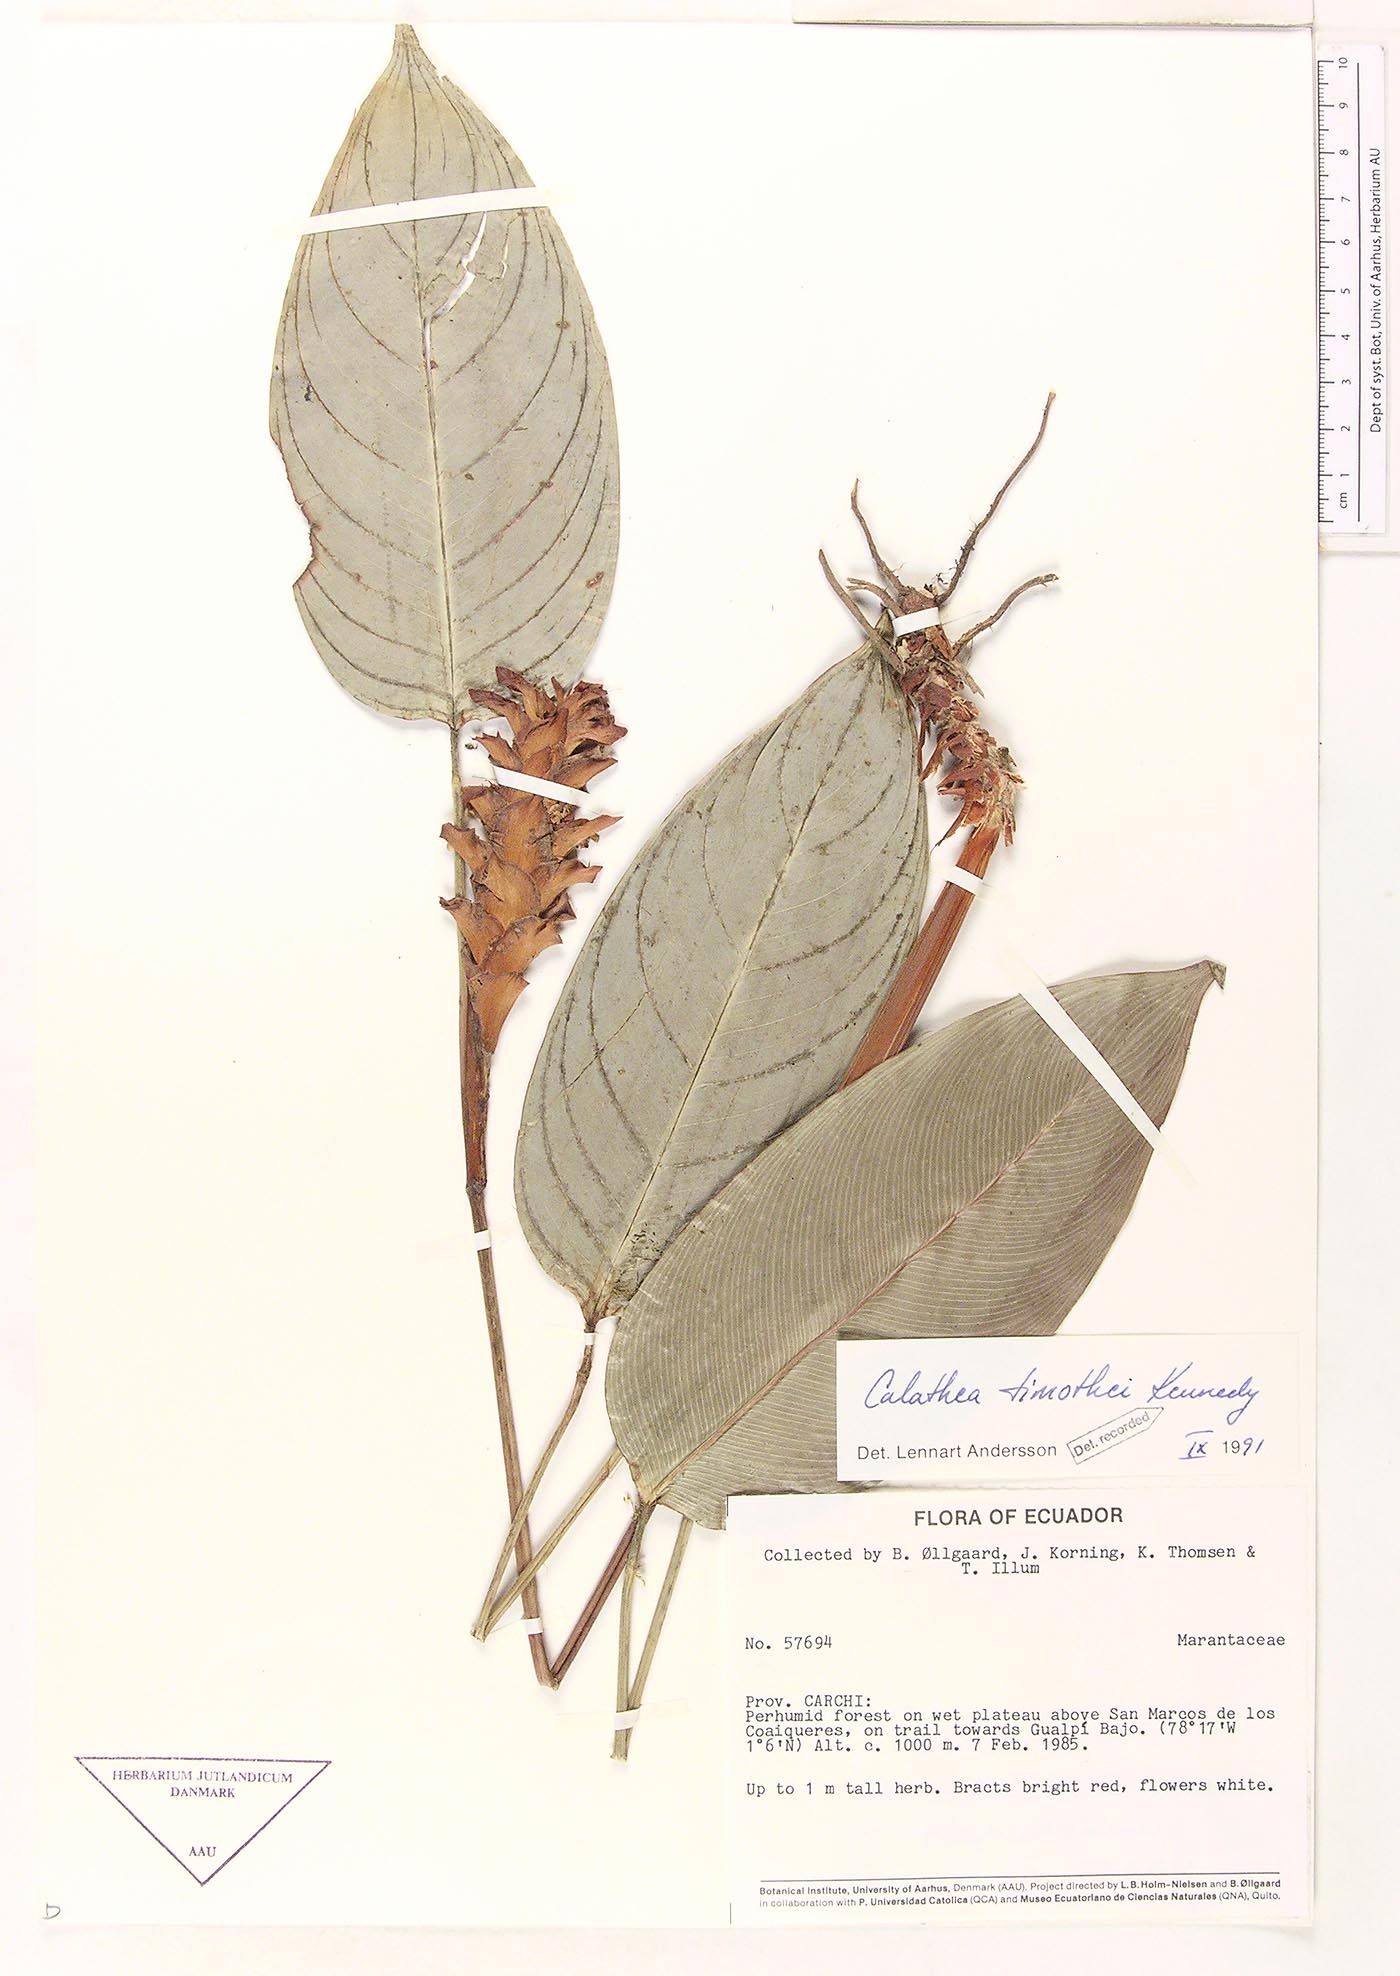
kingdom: Plantae
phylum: Tracheophyta
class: Liliopsida
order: Zingiberales
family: Marantaceae
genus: Calathea
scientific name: Calathea timothei
